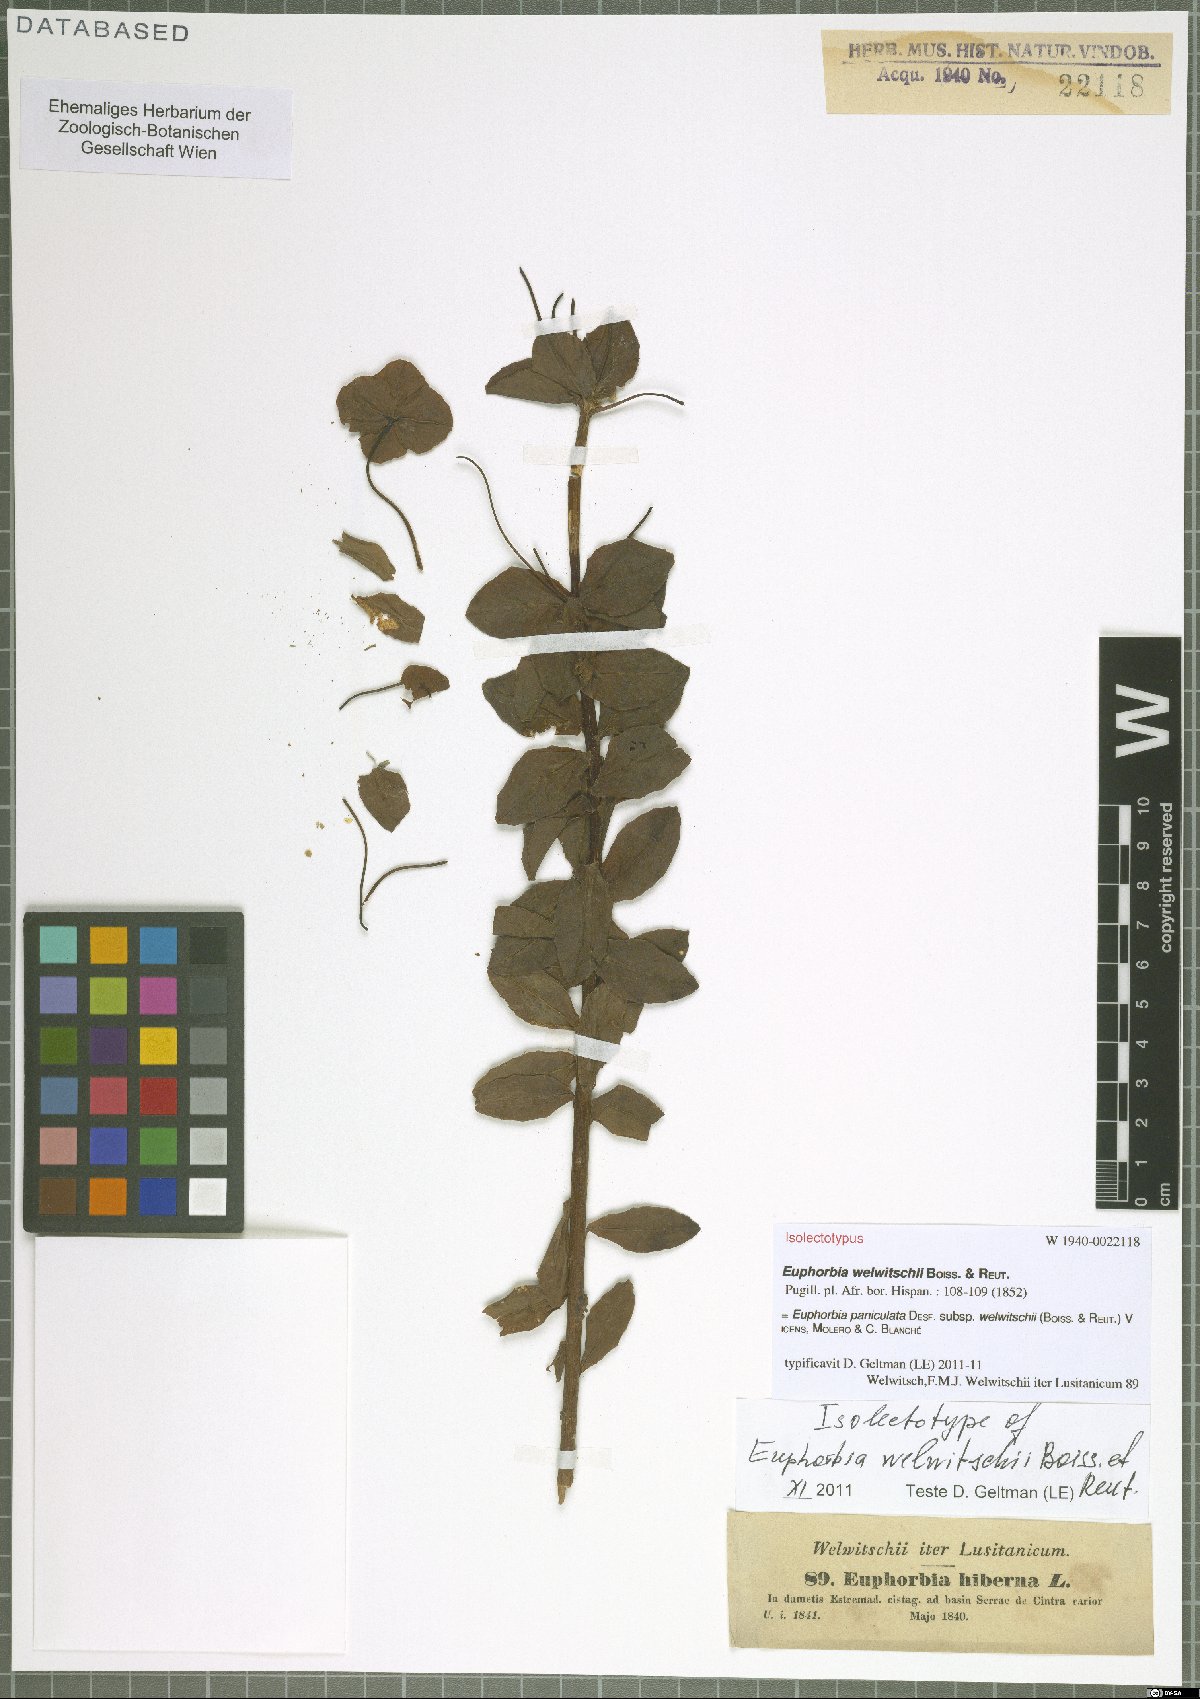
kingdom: Plantae
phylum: Tracheophyta
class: Magnoliopsida
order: Malpighiales
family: Euphorbiaceae
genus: Euphorbia
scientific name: Euphorbia paniculata
